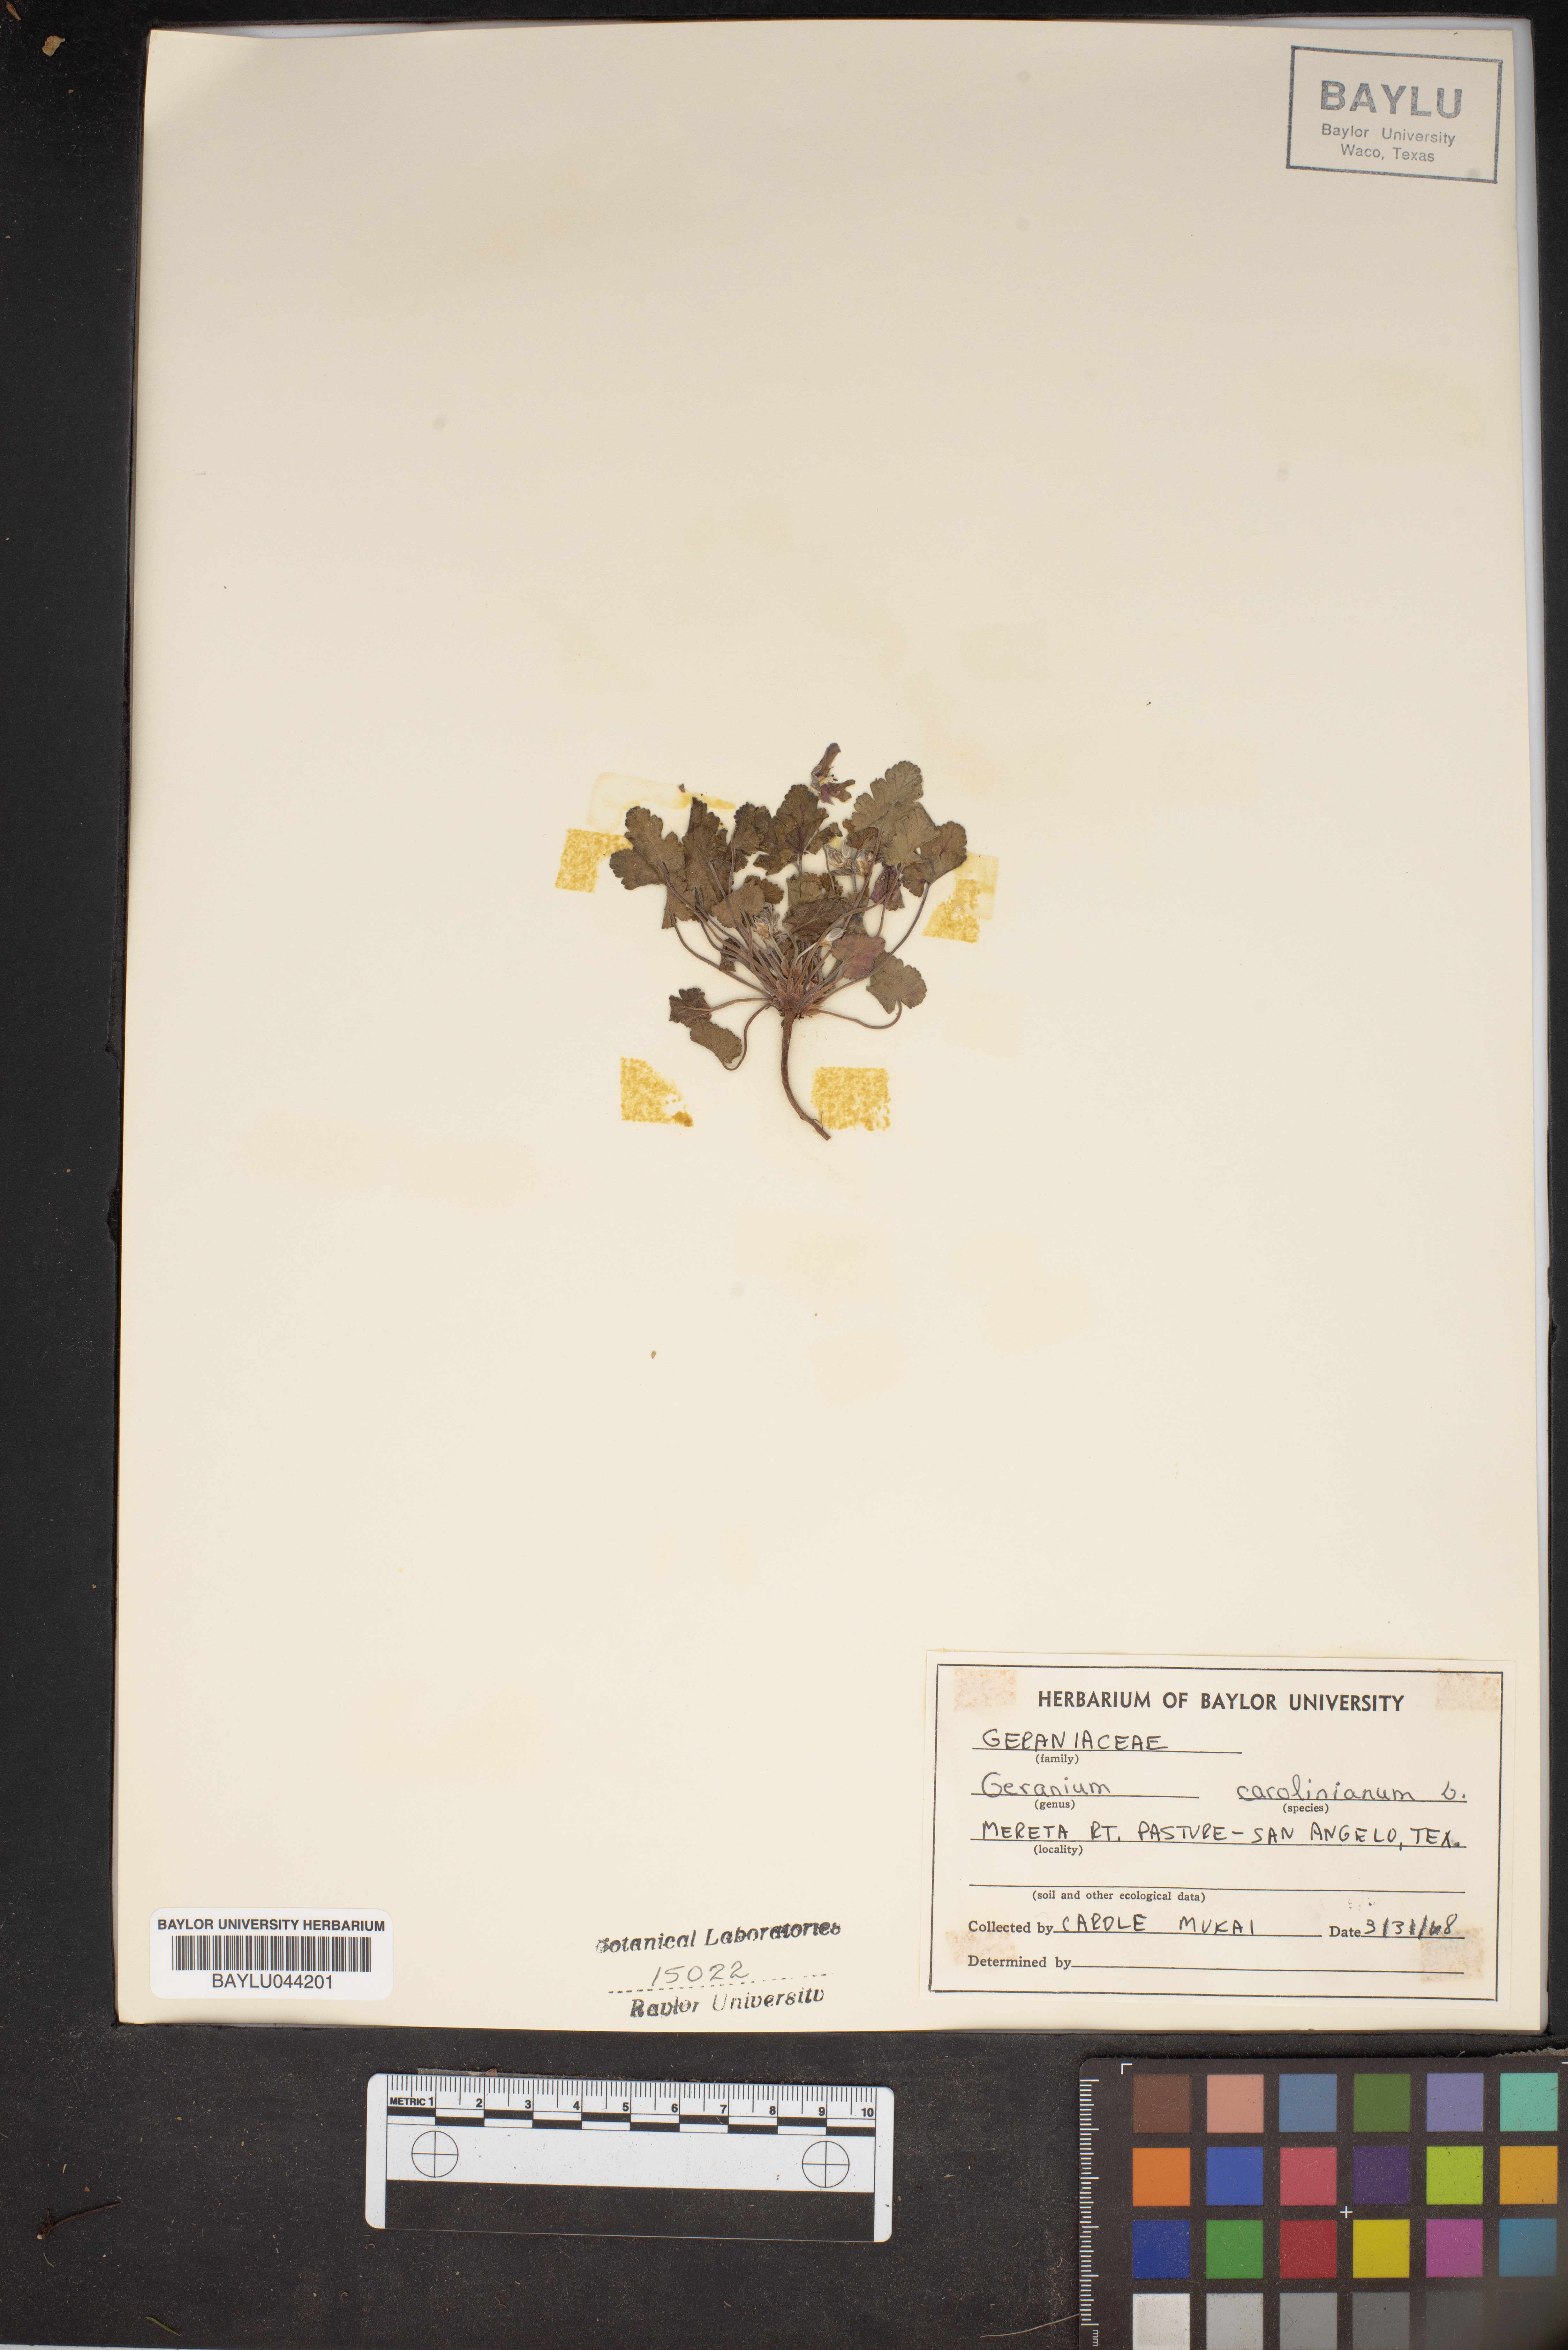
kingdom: Plantae
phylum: Tracheophyta
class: Magnoliopsida
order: Geraniales
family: Geraniaceae
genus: Geranium
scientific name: Geranium carolinianum
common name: Carolina crane's-bill
